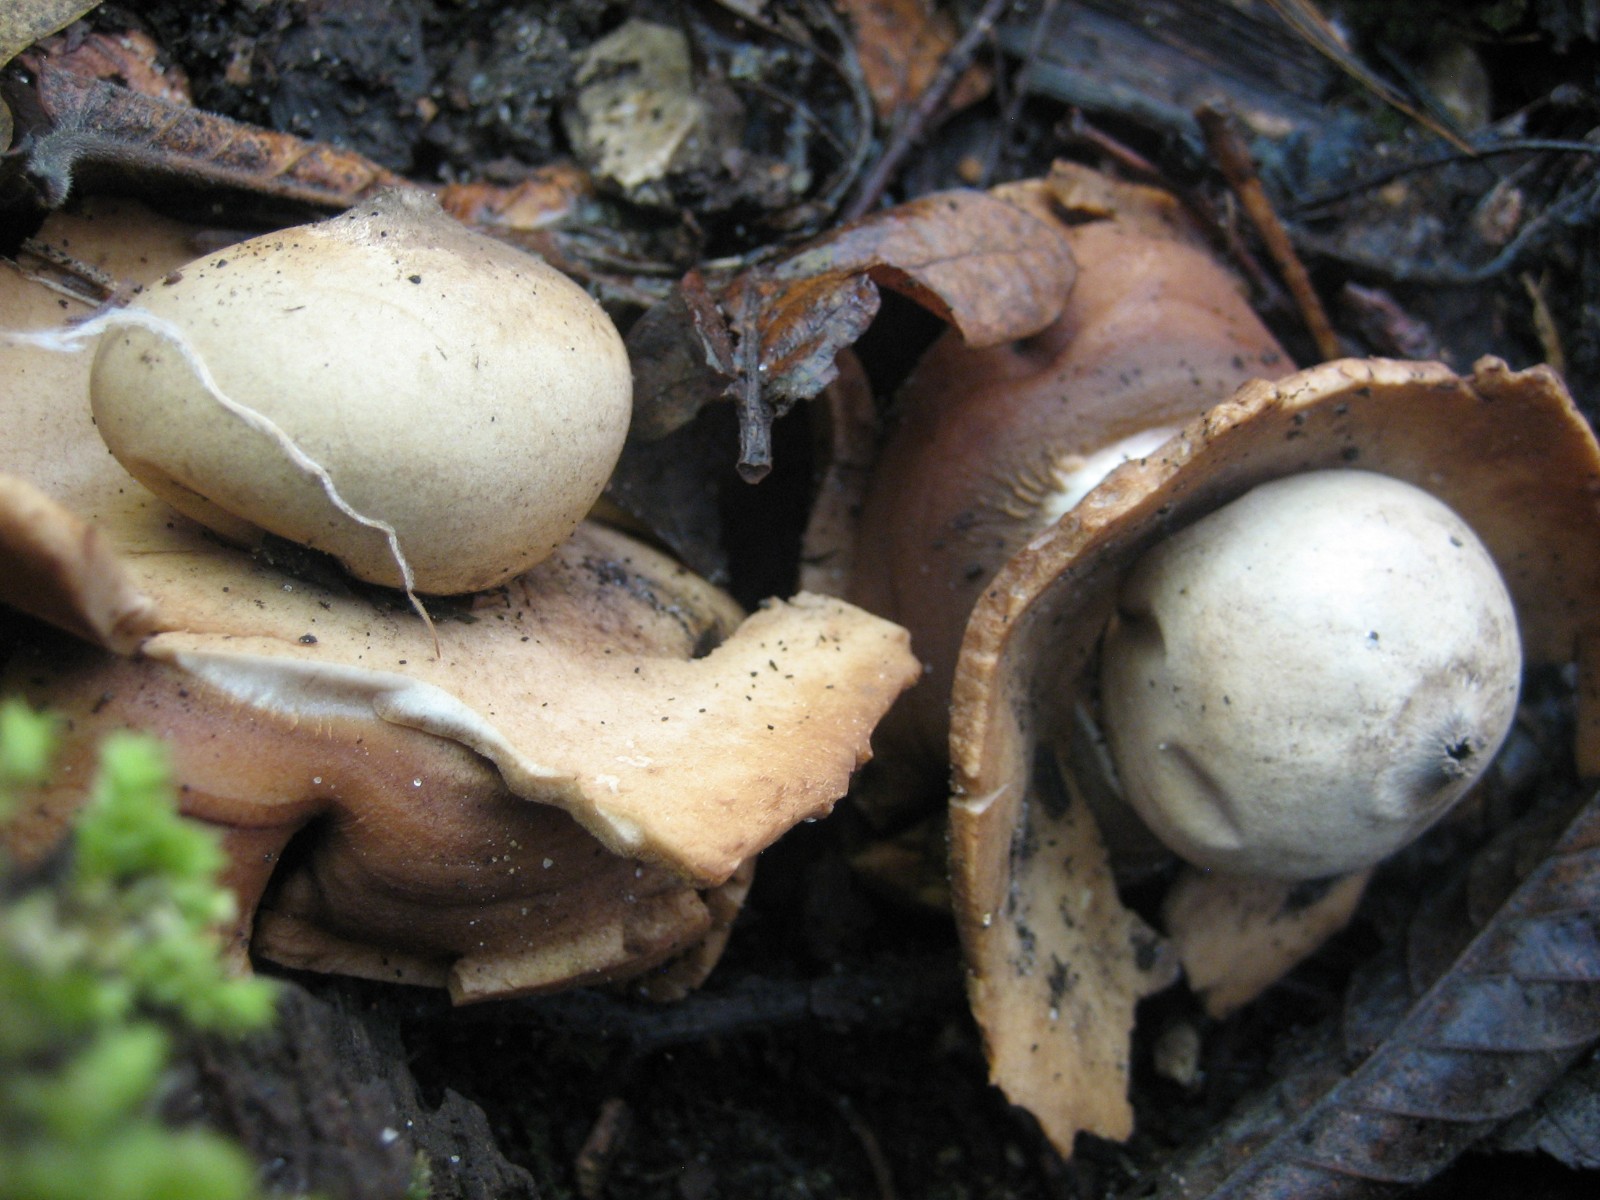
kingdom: Fungi
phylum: Basidiomycota
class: Agaricomycetes
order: Geastrales
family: Geastraceae
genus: Geastrum
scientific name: Geastrum michelianum
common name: kødet stjernebold
